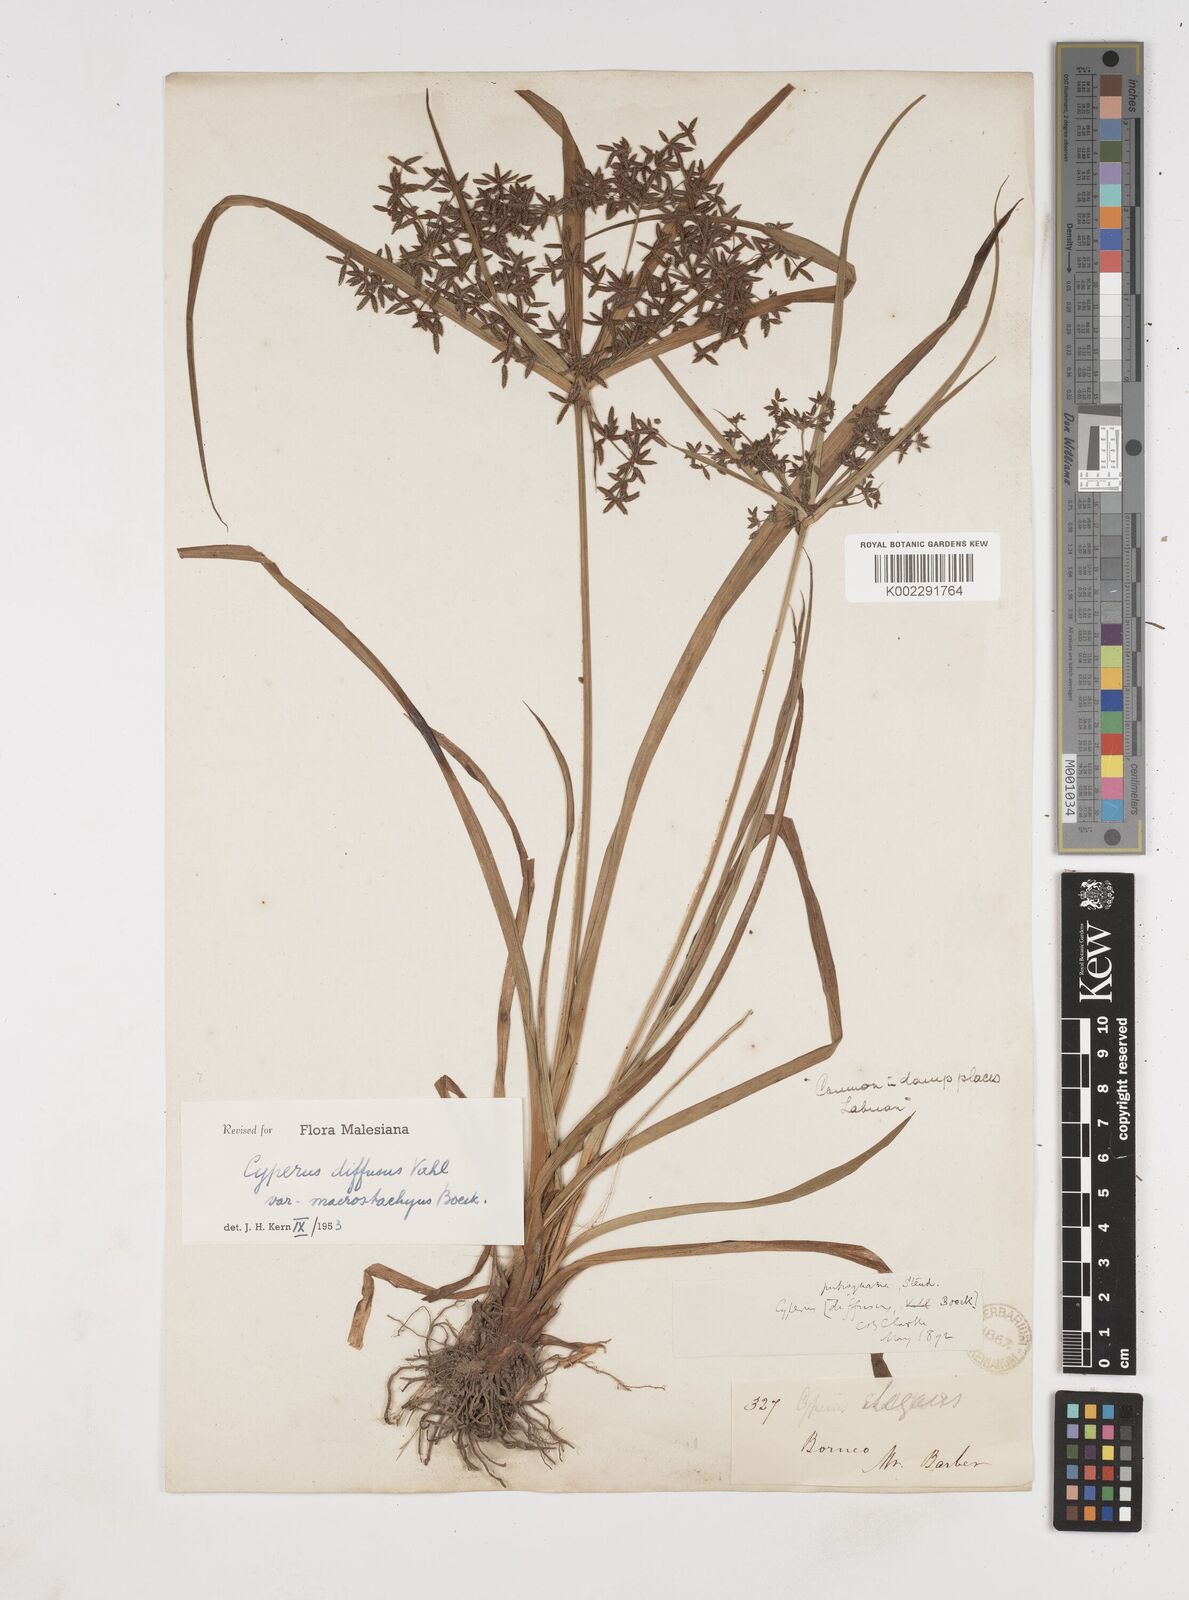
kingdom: Plantae
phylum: Tracheophyta
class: Liliopsida
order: Poales
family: Cyperaceae
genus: Cyperus
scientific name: Cyperus diffusus
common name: Dwarf umbrella grass
